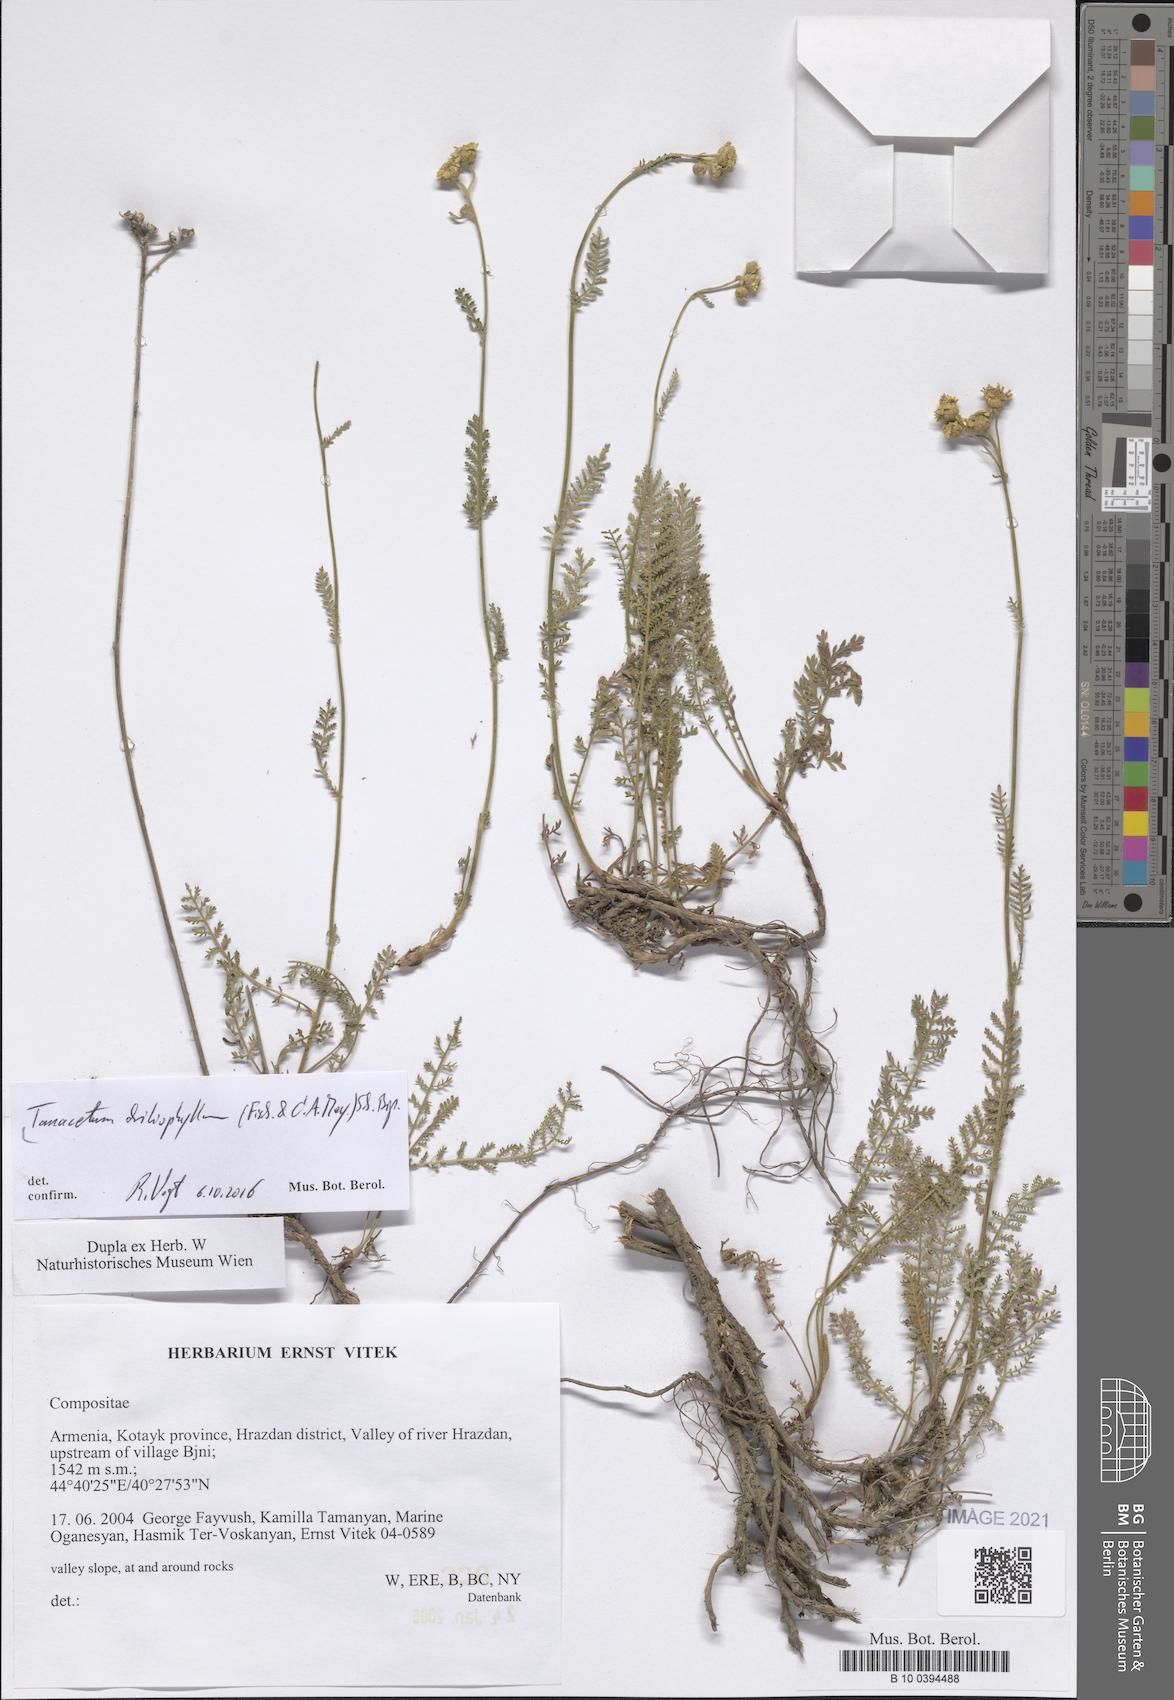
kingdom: Plantae
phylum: Tracheophyta
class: Magnoliopsida
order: Asterales
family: Asteraceae
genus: Tanacetum
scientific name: Tanacetum aureum
